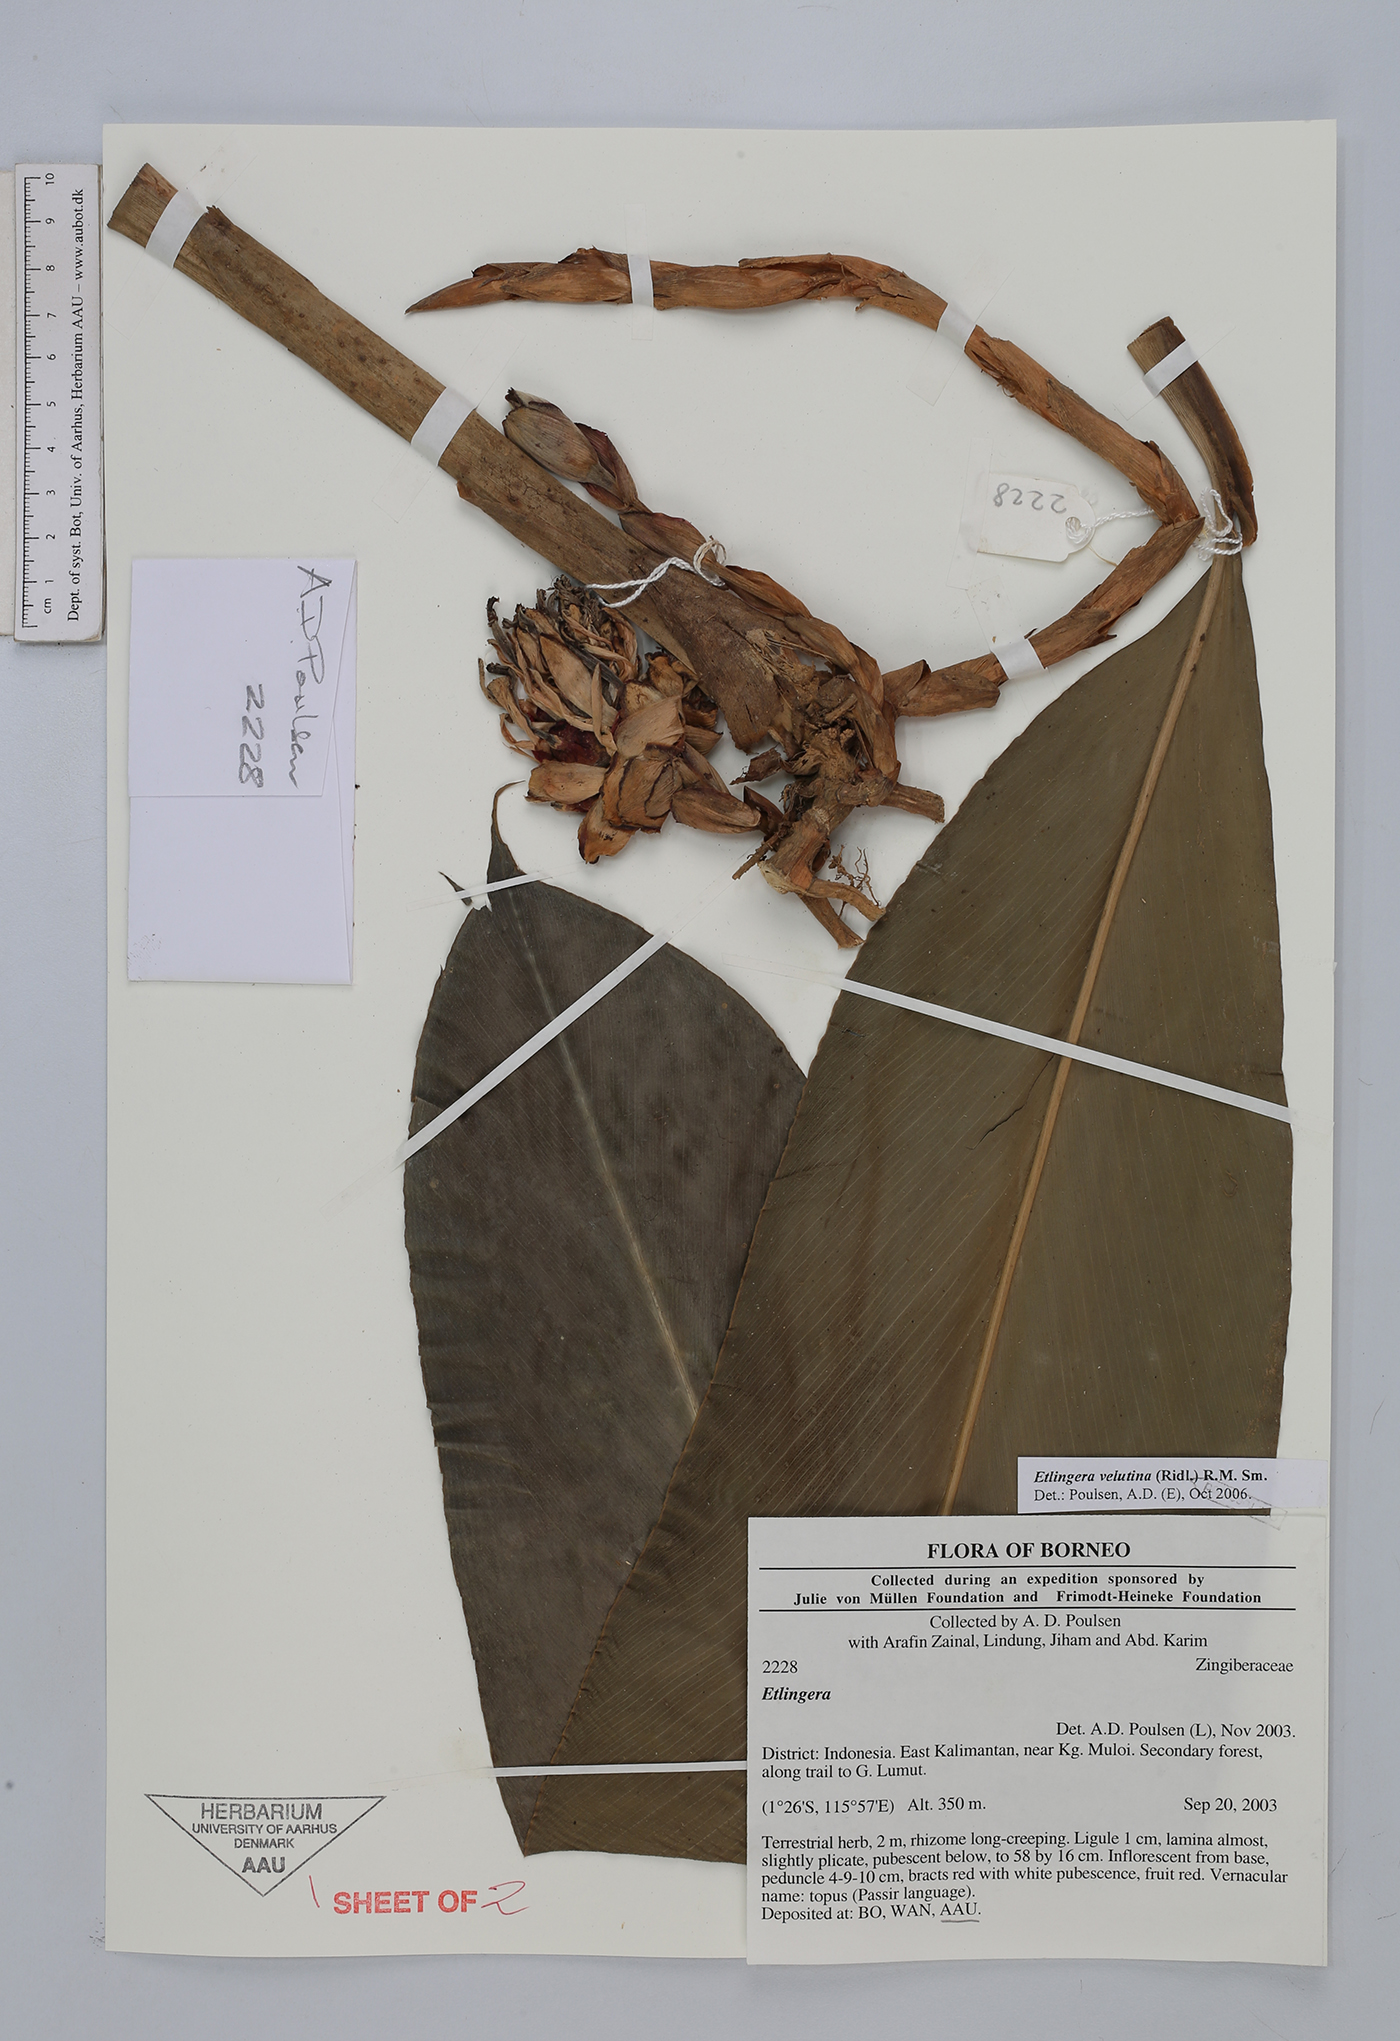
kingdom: Plantae
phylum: Tracheophyta
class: Liliopsida
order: Zingiberales
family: Zingiberaceae
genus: Etlingera
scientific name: Etlingera velutina
